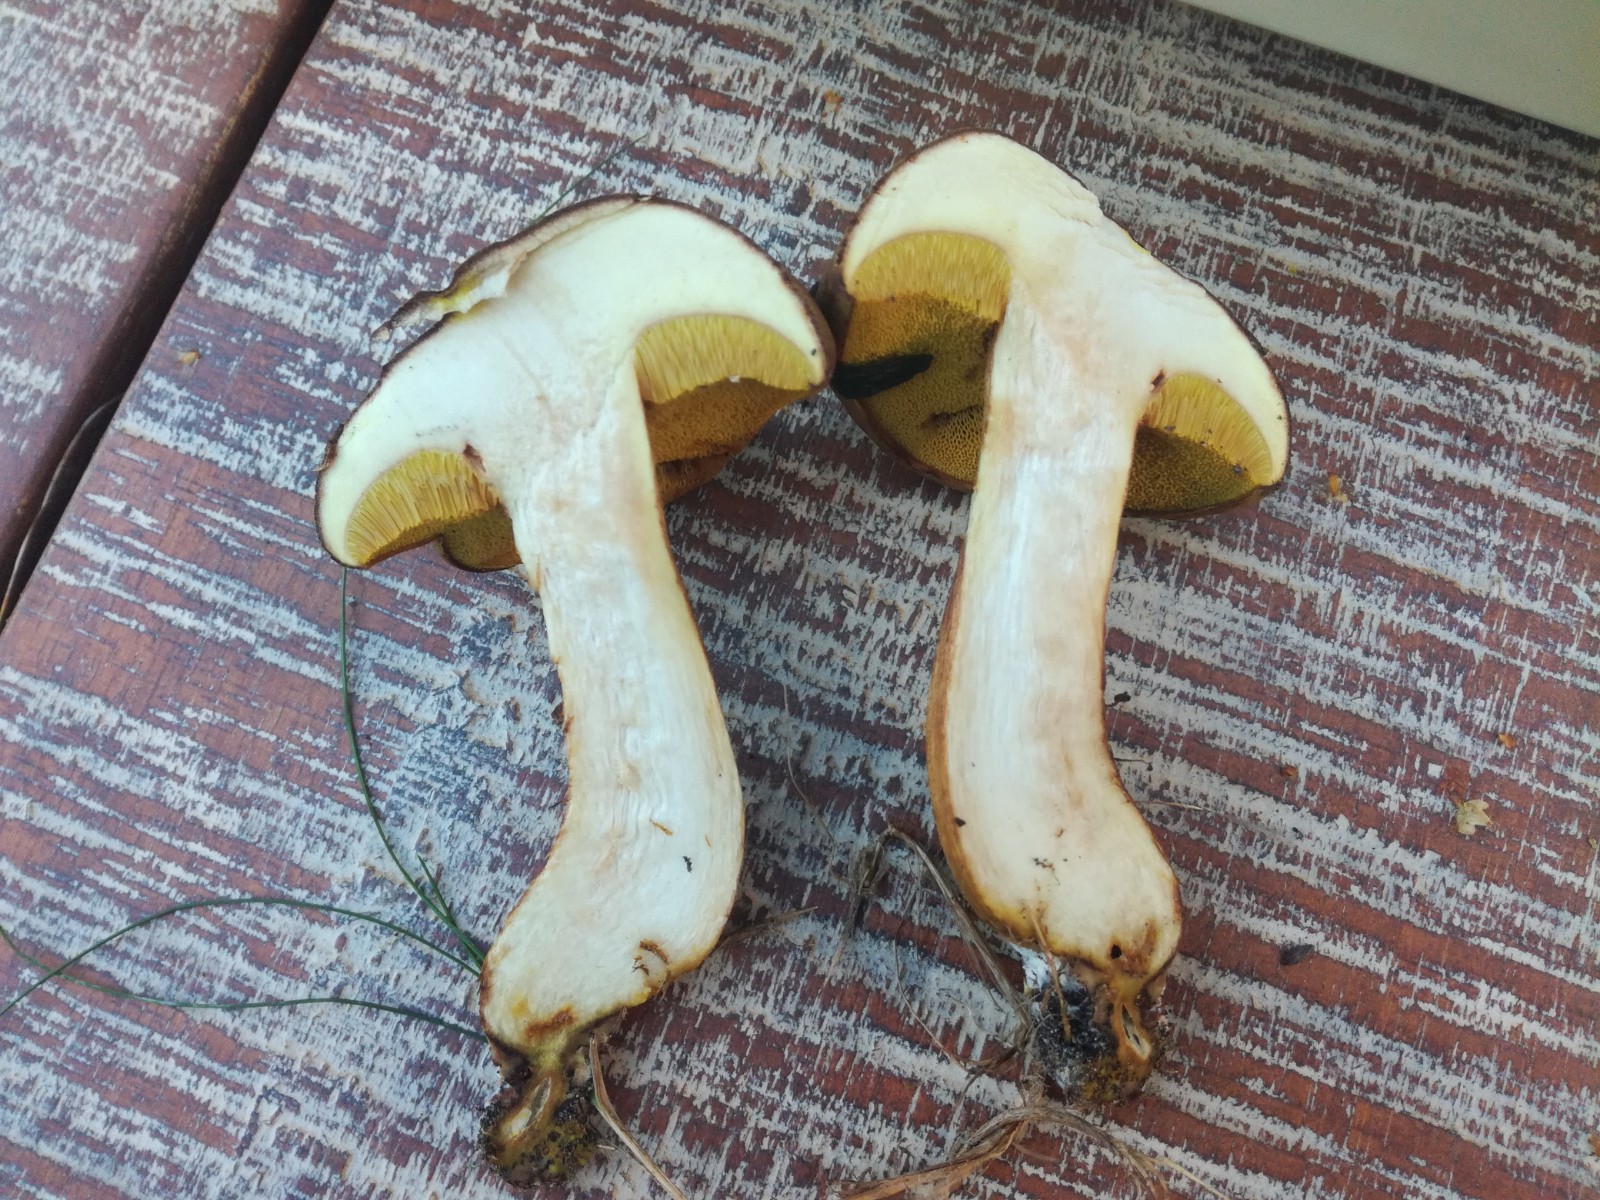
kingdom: Fungi
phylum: Basidiomycota
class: Agaricomycetes
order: Boletales
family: Boletaceae
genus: Xerocomus
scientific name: Xerocomus ferrugineus
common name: vaskeskinds-rørhat
